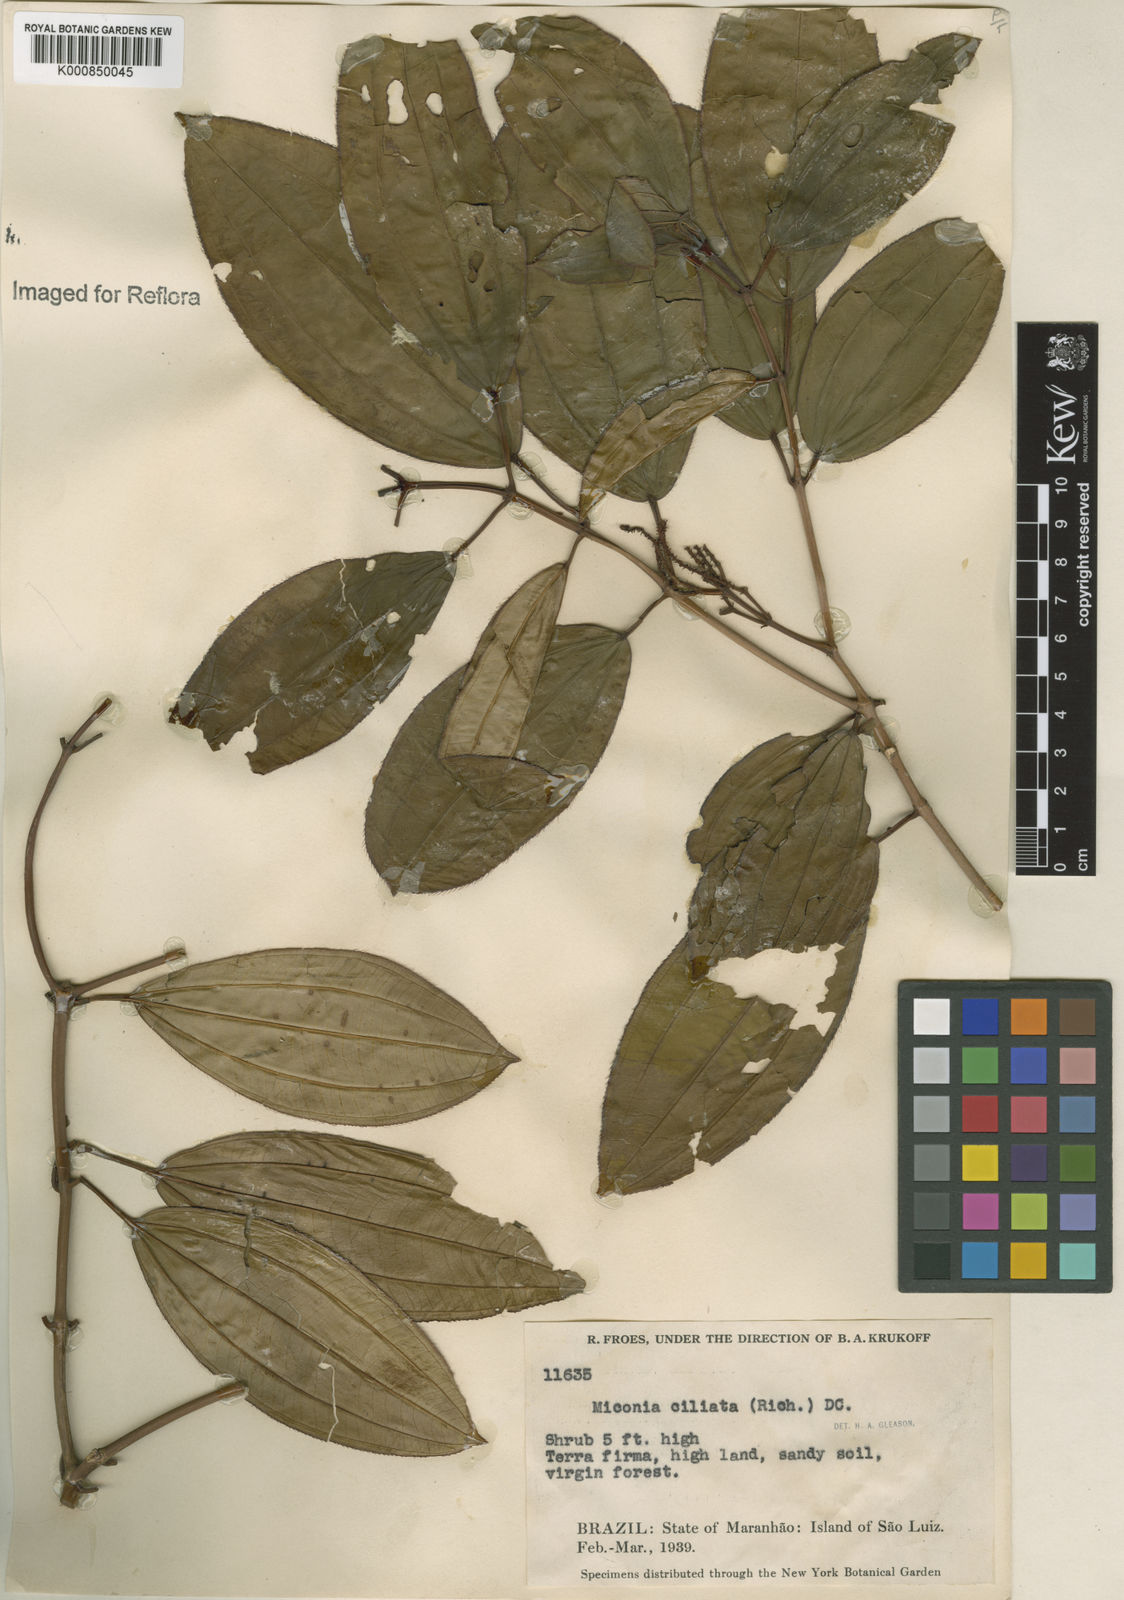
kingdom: Plantae
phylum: Tracheophyta
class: Magnoliopsida
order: Myrtales
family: Melastomataceae
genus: Miconia
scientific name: Miconia ciliata
